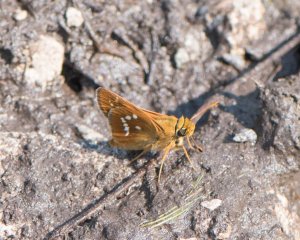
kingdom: Animalia
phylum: Arthropoda
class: Insecta
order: Lepidoptera
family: Hesperiidae
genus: Hesperia
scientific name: Hesperia leonardus
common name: Leonard's Skipper
